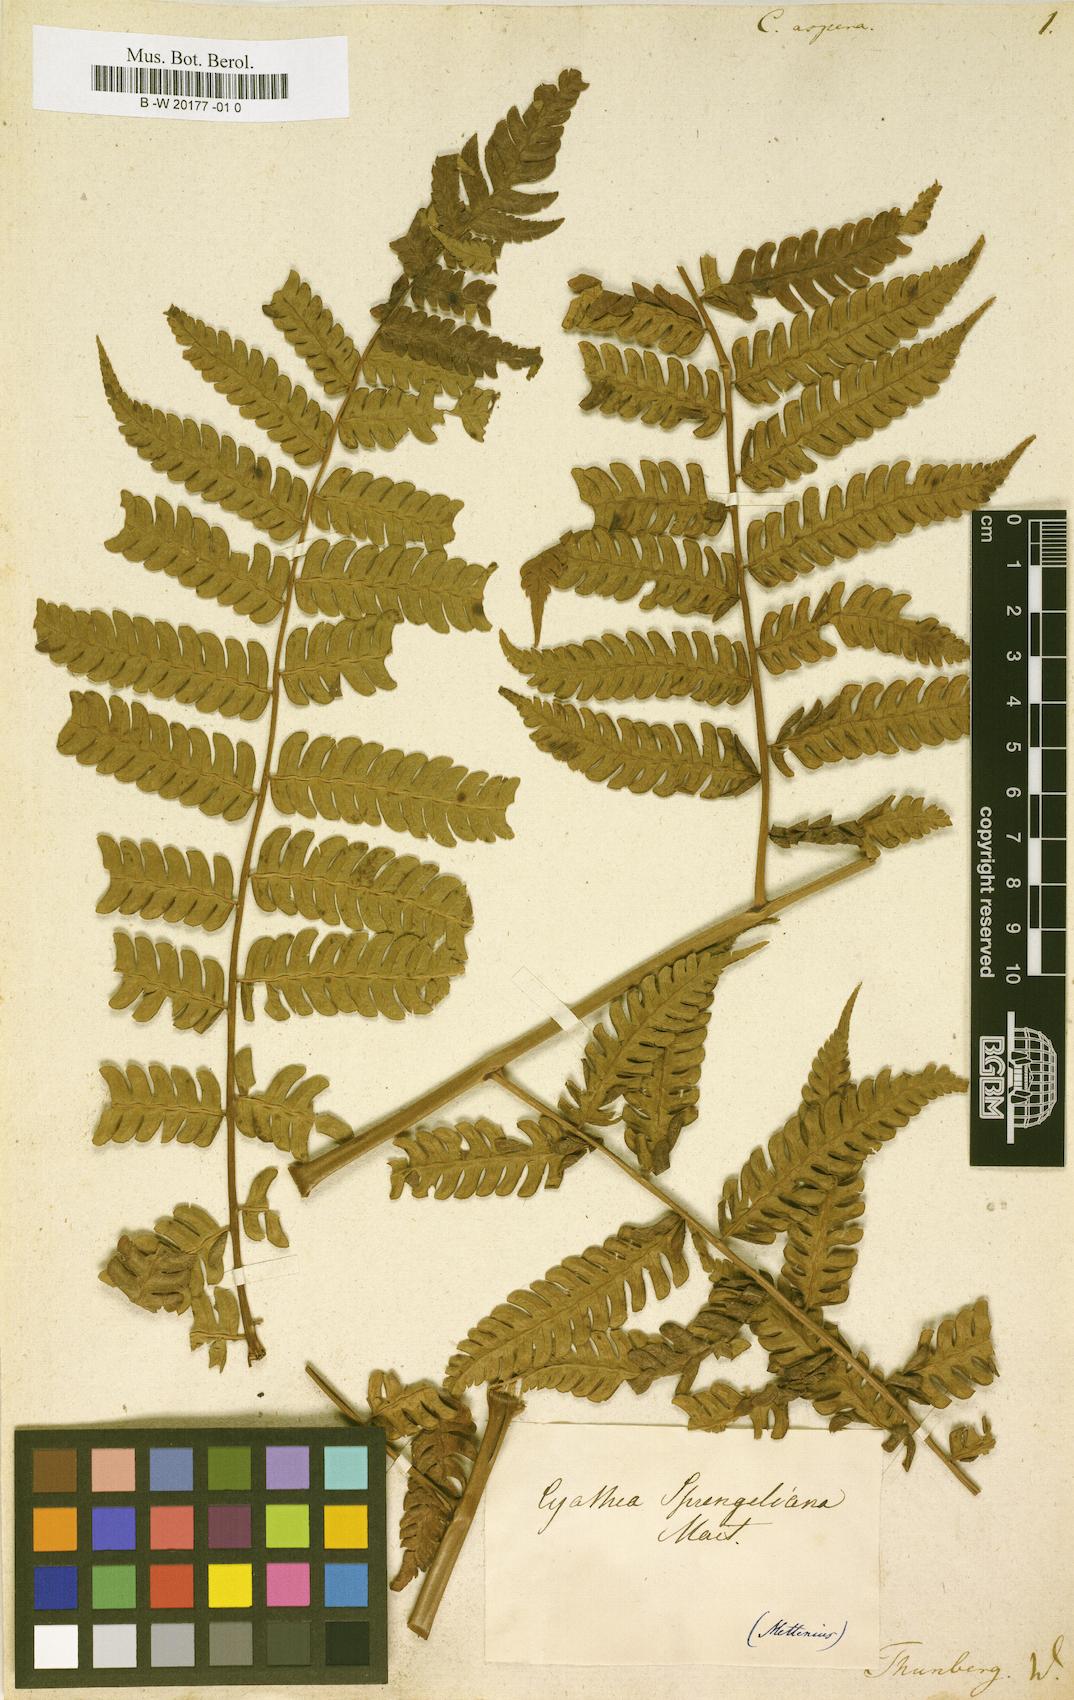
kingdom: Plantae
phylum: Tracheophyta
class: Polypodiopsida
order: Cyatheales
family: Cyatheaceae
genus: Cyathea
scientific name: Cyathea aspera
